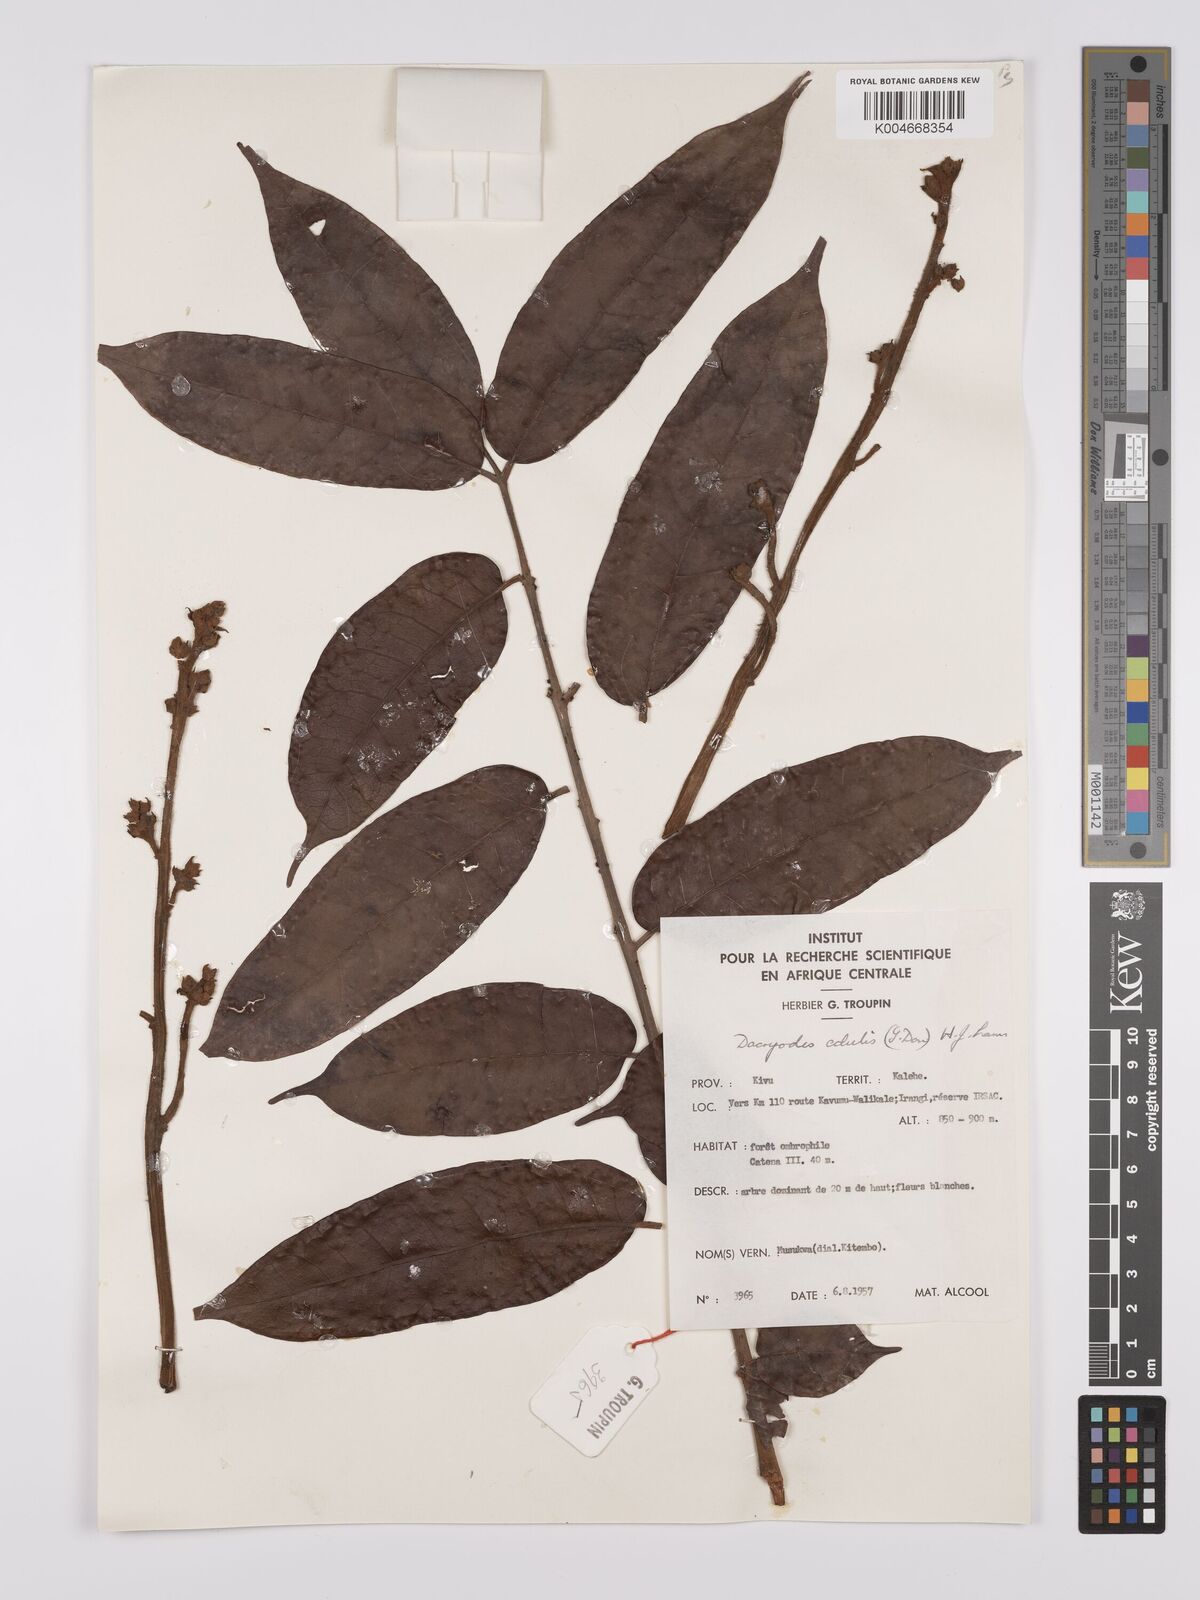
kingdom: Plantae
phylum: Tracheophyta
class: Magnoliopsida
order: Sapindales
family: Burseraceae
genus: Pachylobus
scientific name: Pachylobus edulis
